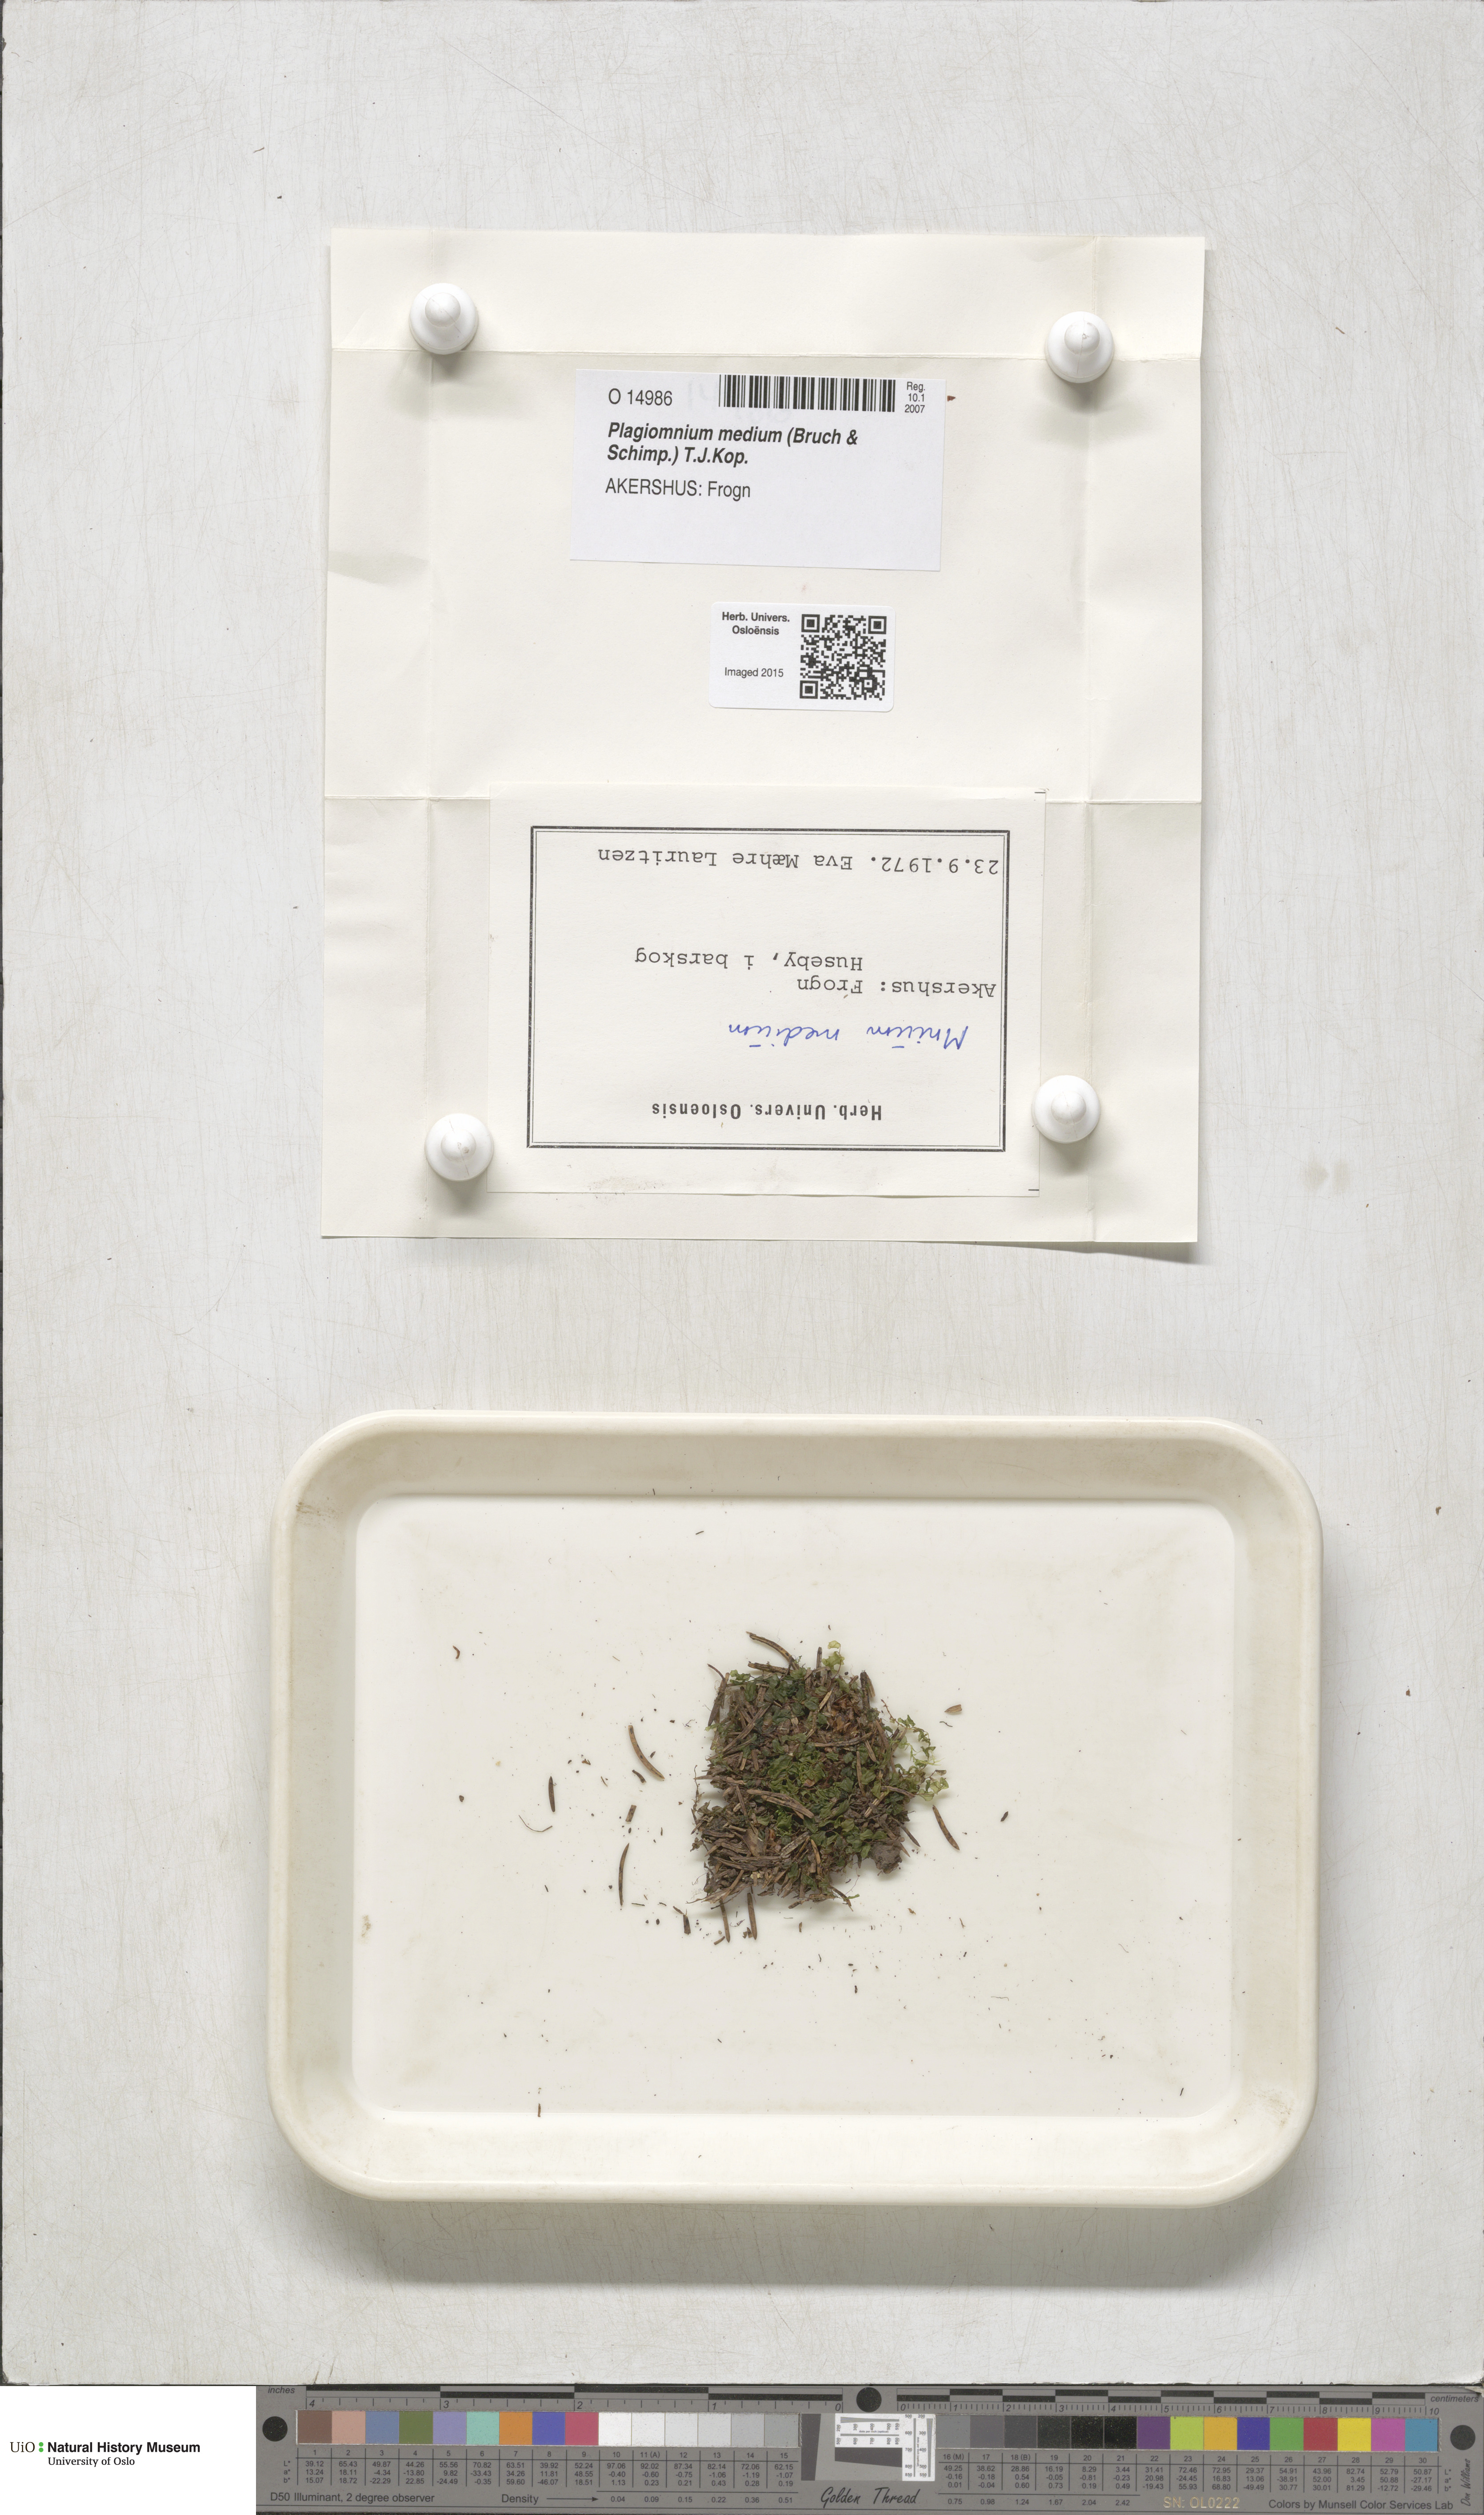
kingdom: Plantae
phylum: Bryophyta
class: Bryopsida
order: Bryales
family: Mniaceae
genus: Plagiomnium
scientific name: Plagiomnium medium
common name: Alpine leafy moss
